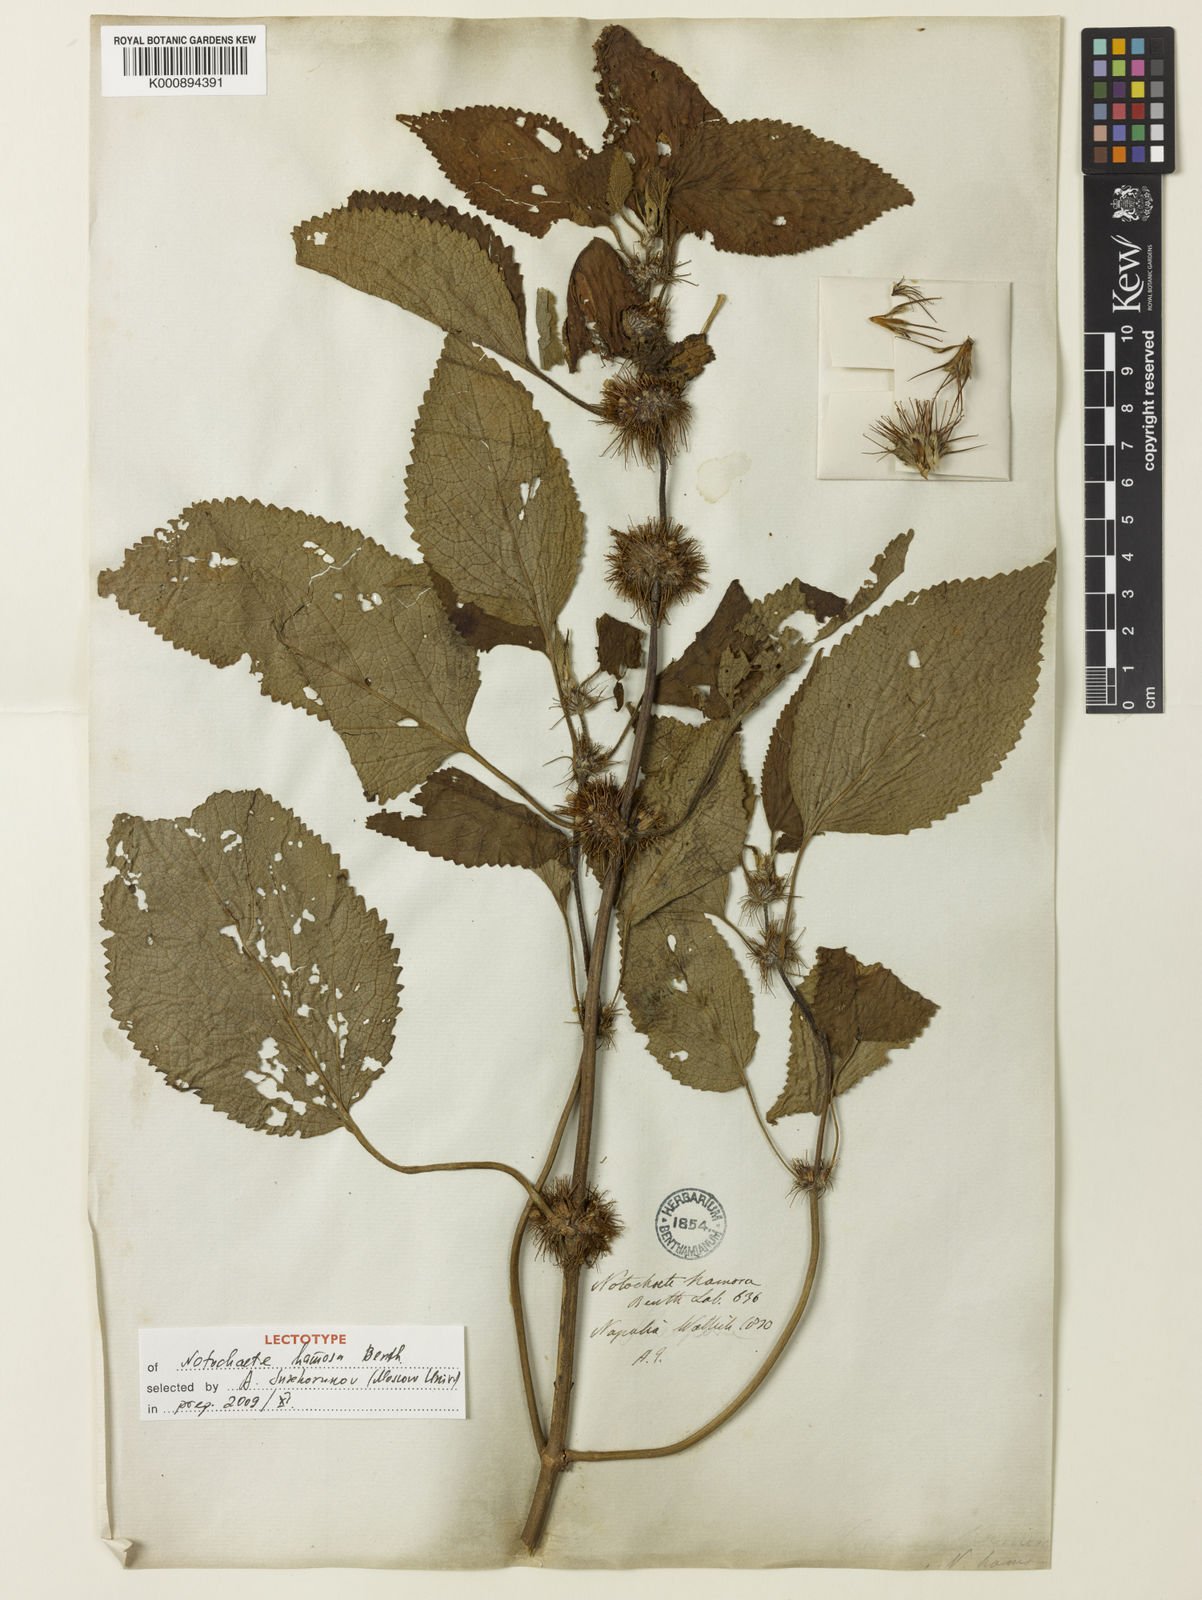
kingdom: Plantae
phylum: Tracheophyta
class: Magnoliopsida
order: Lamiales
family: Lamiaceae
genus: Phlomoides
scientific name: Phlomoides hamosa
